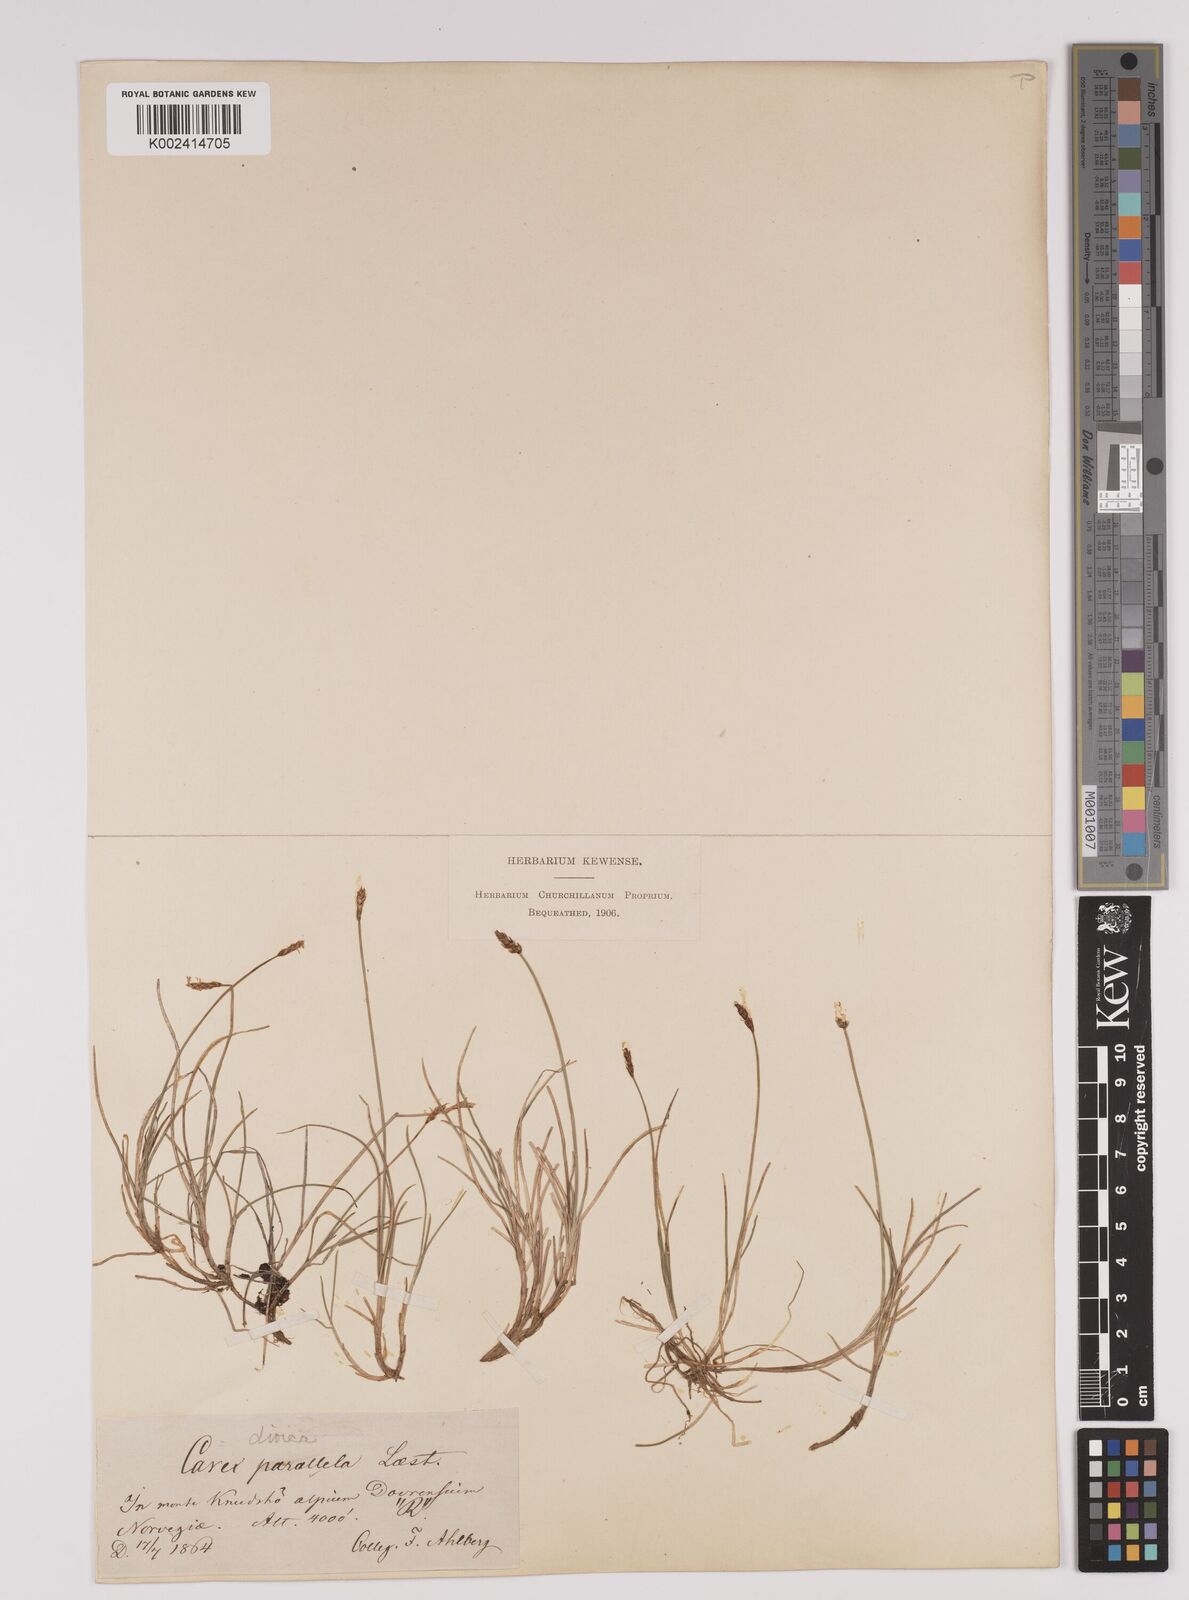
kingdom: Plantae
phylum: Tracheophyta
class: Liliopsida
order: Poales
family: Cyperaceae
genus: Carex
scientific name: Carex parallela
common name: Parallel sedge
